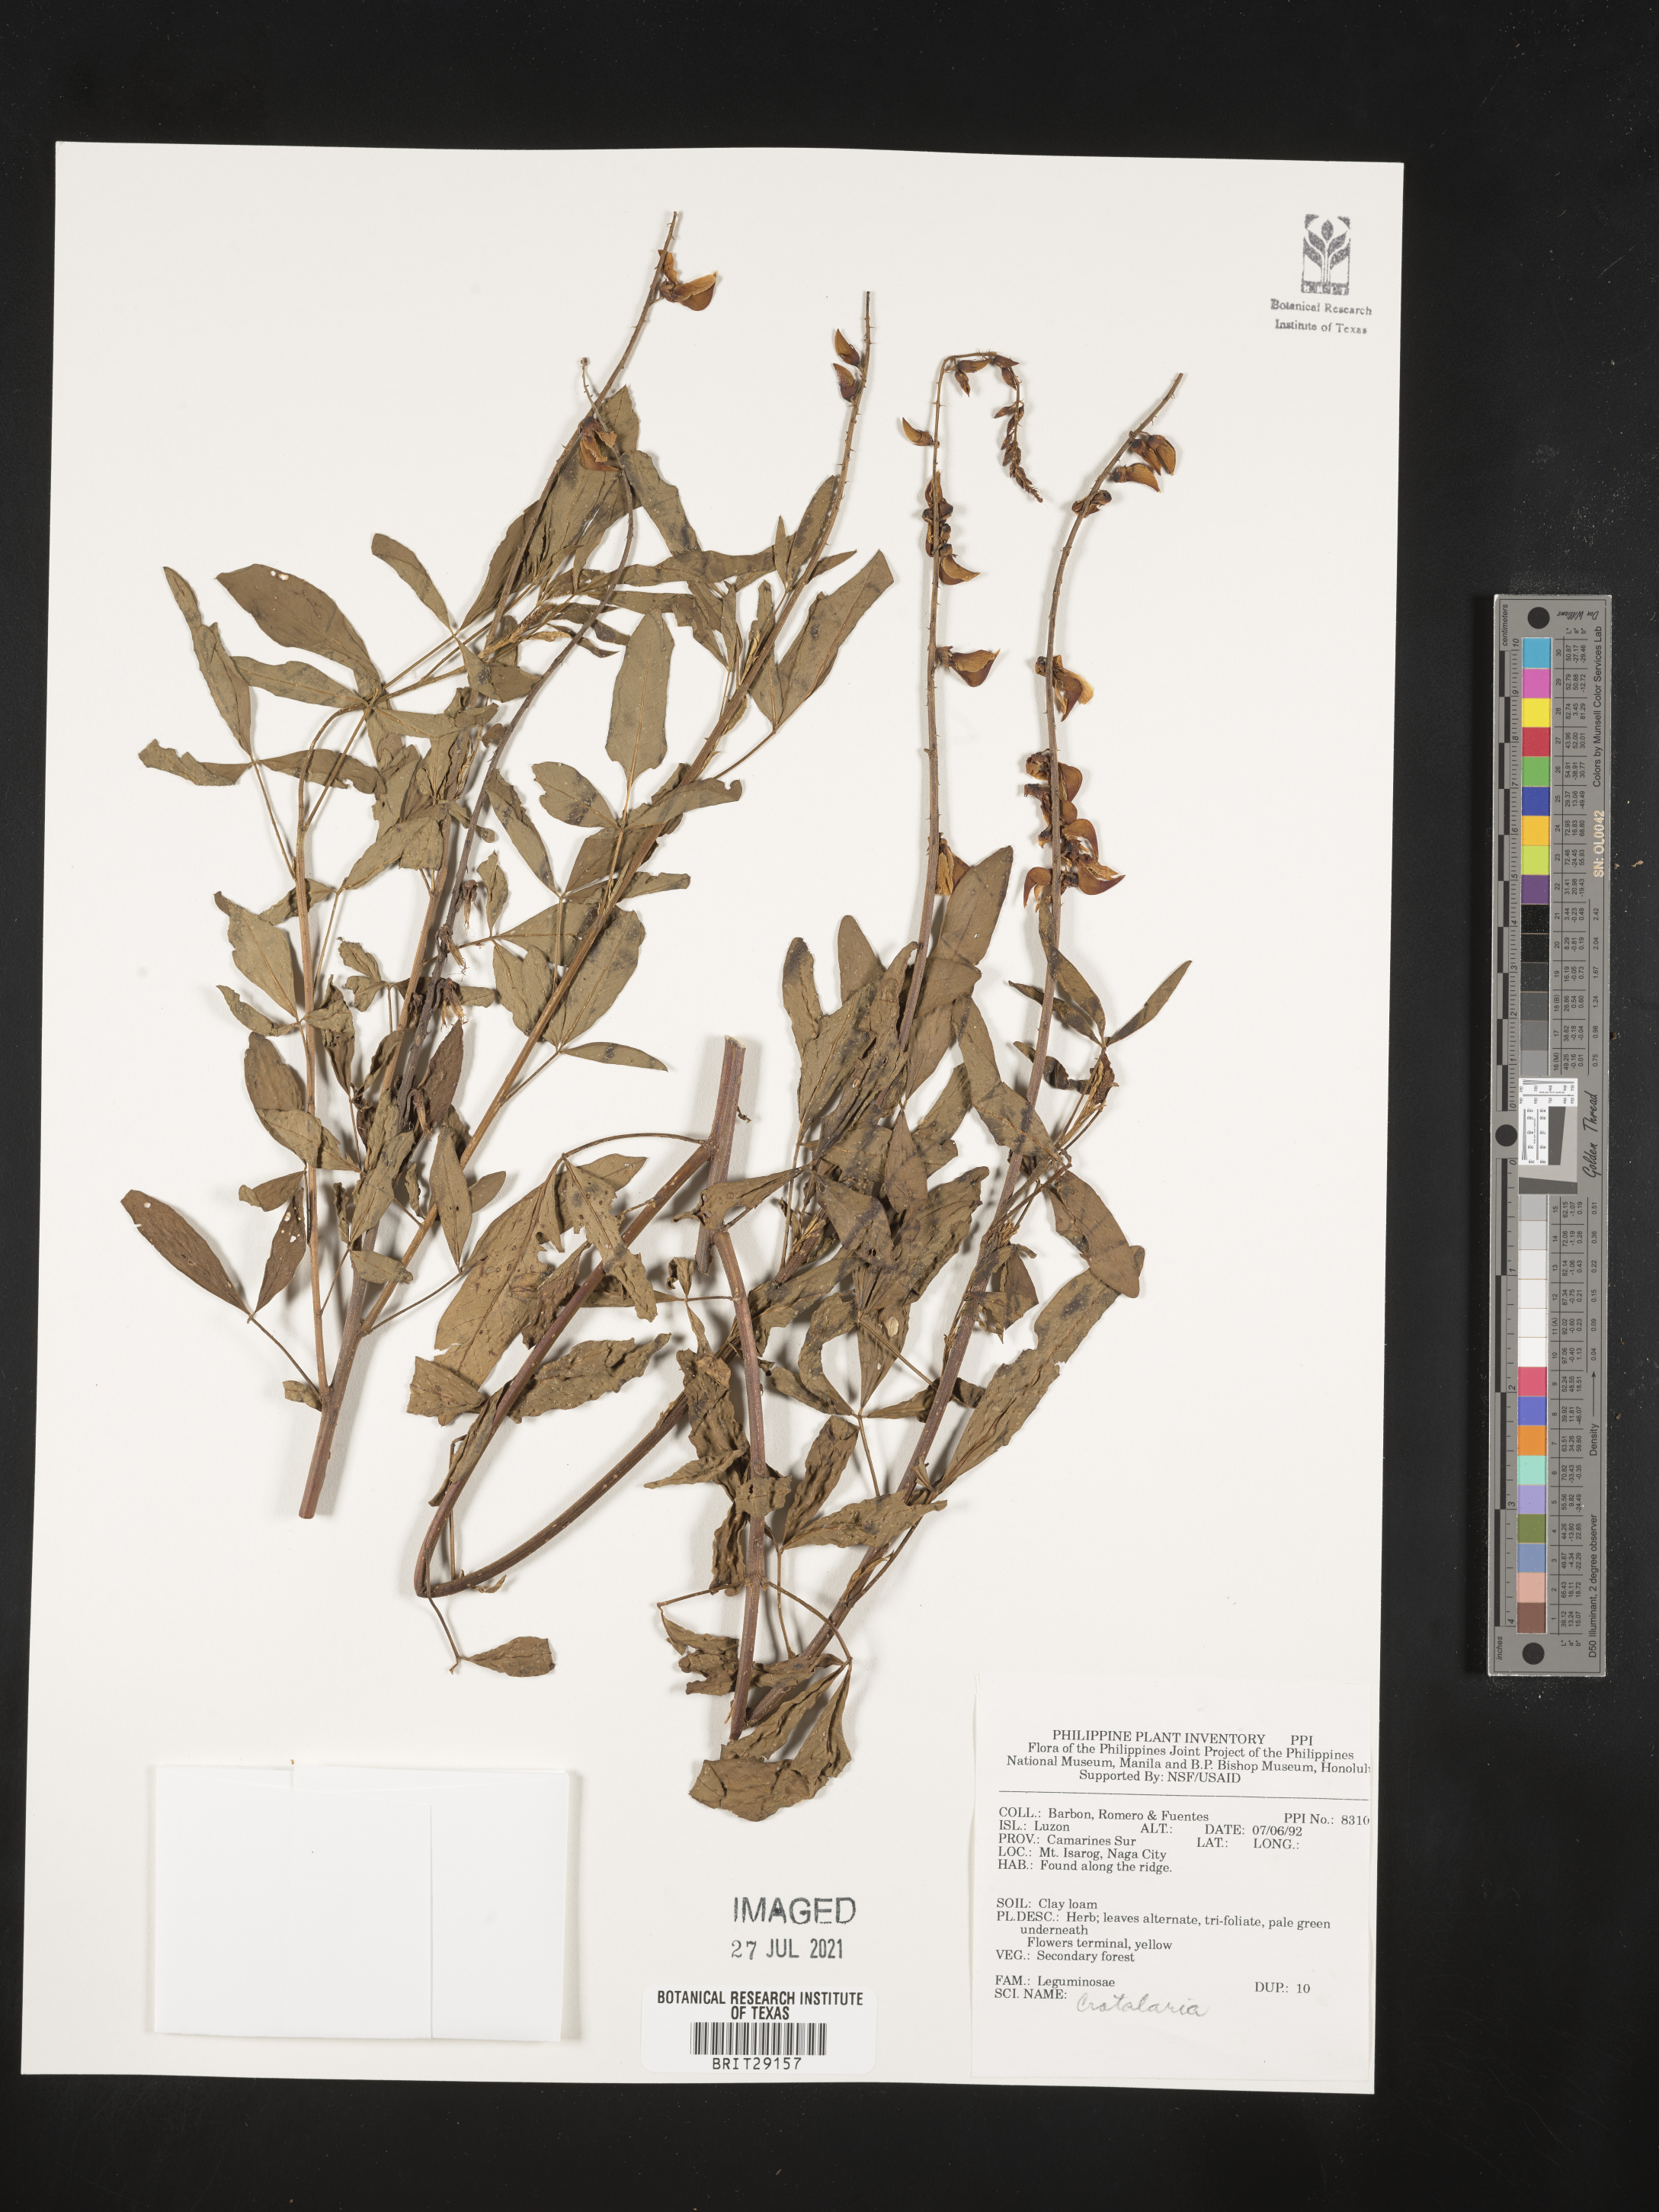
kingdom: Plantae
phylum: Tracheophyta
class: Magnoliopsida
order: Fabales
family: Fabaceae
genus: Crotalaria
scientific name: Crotalaria
